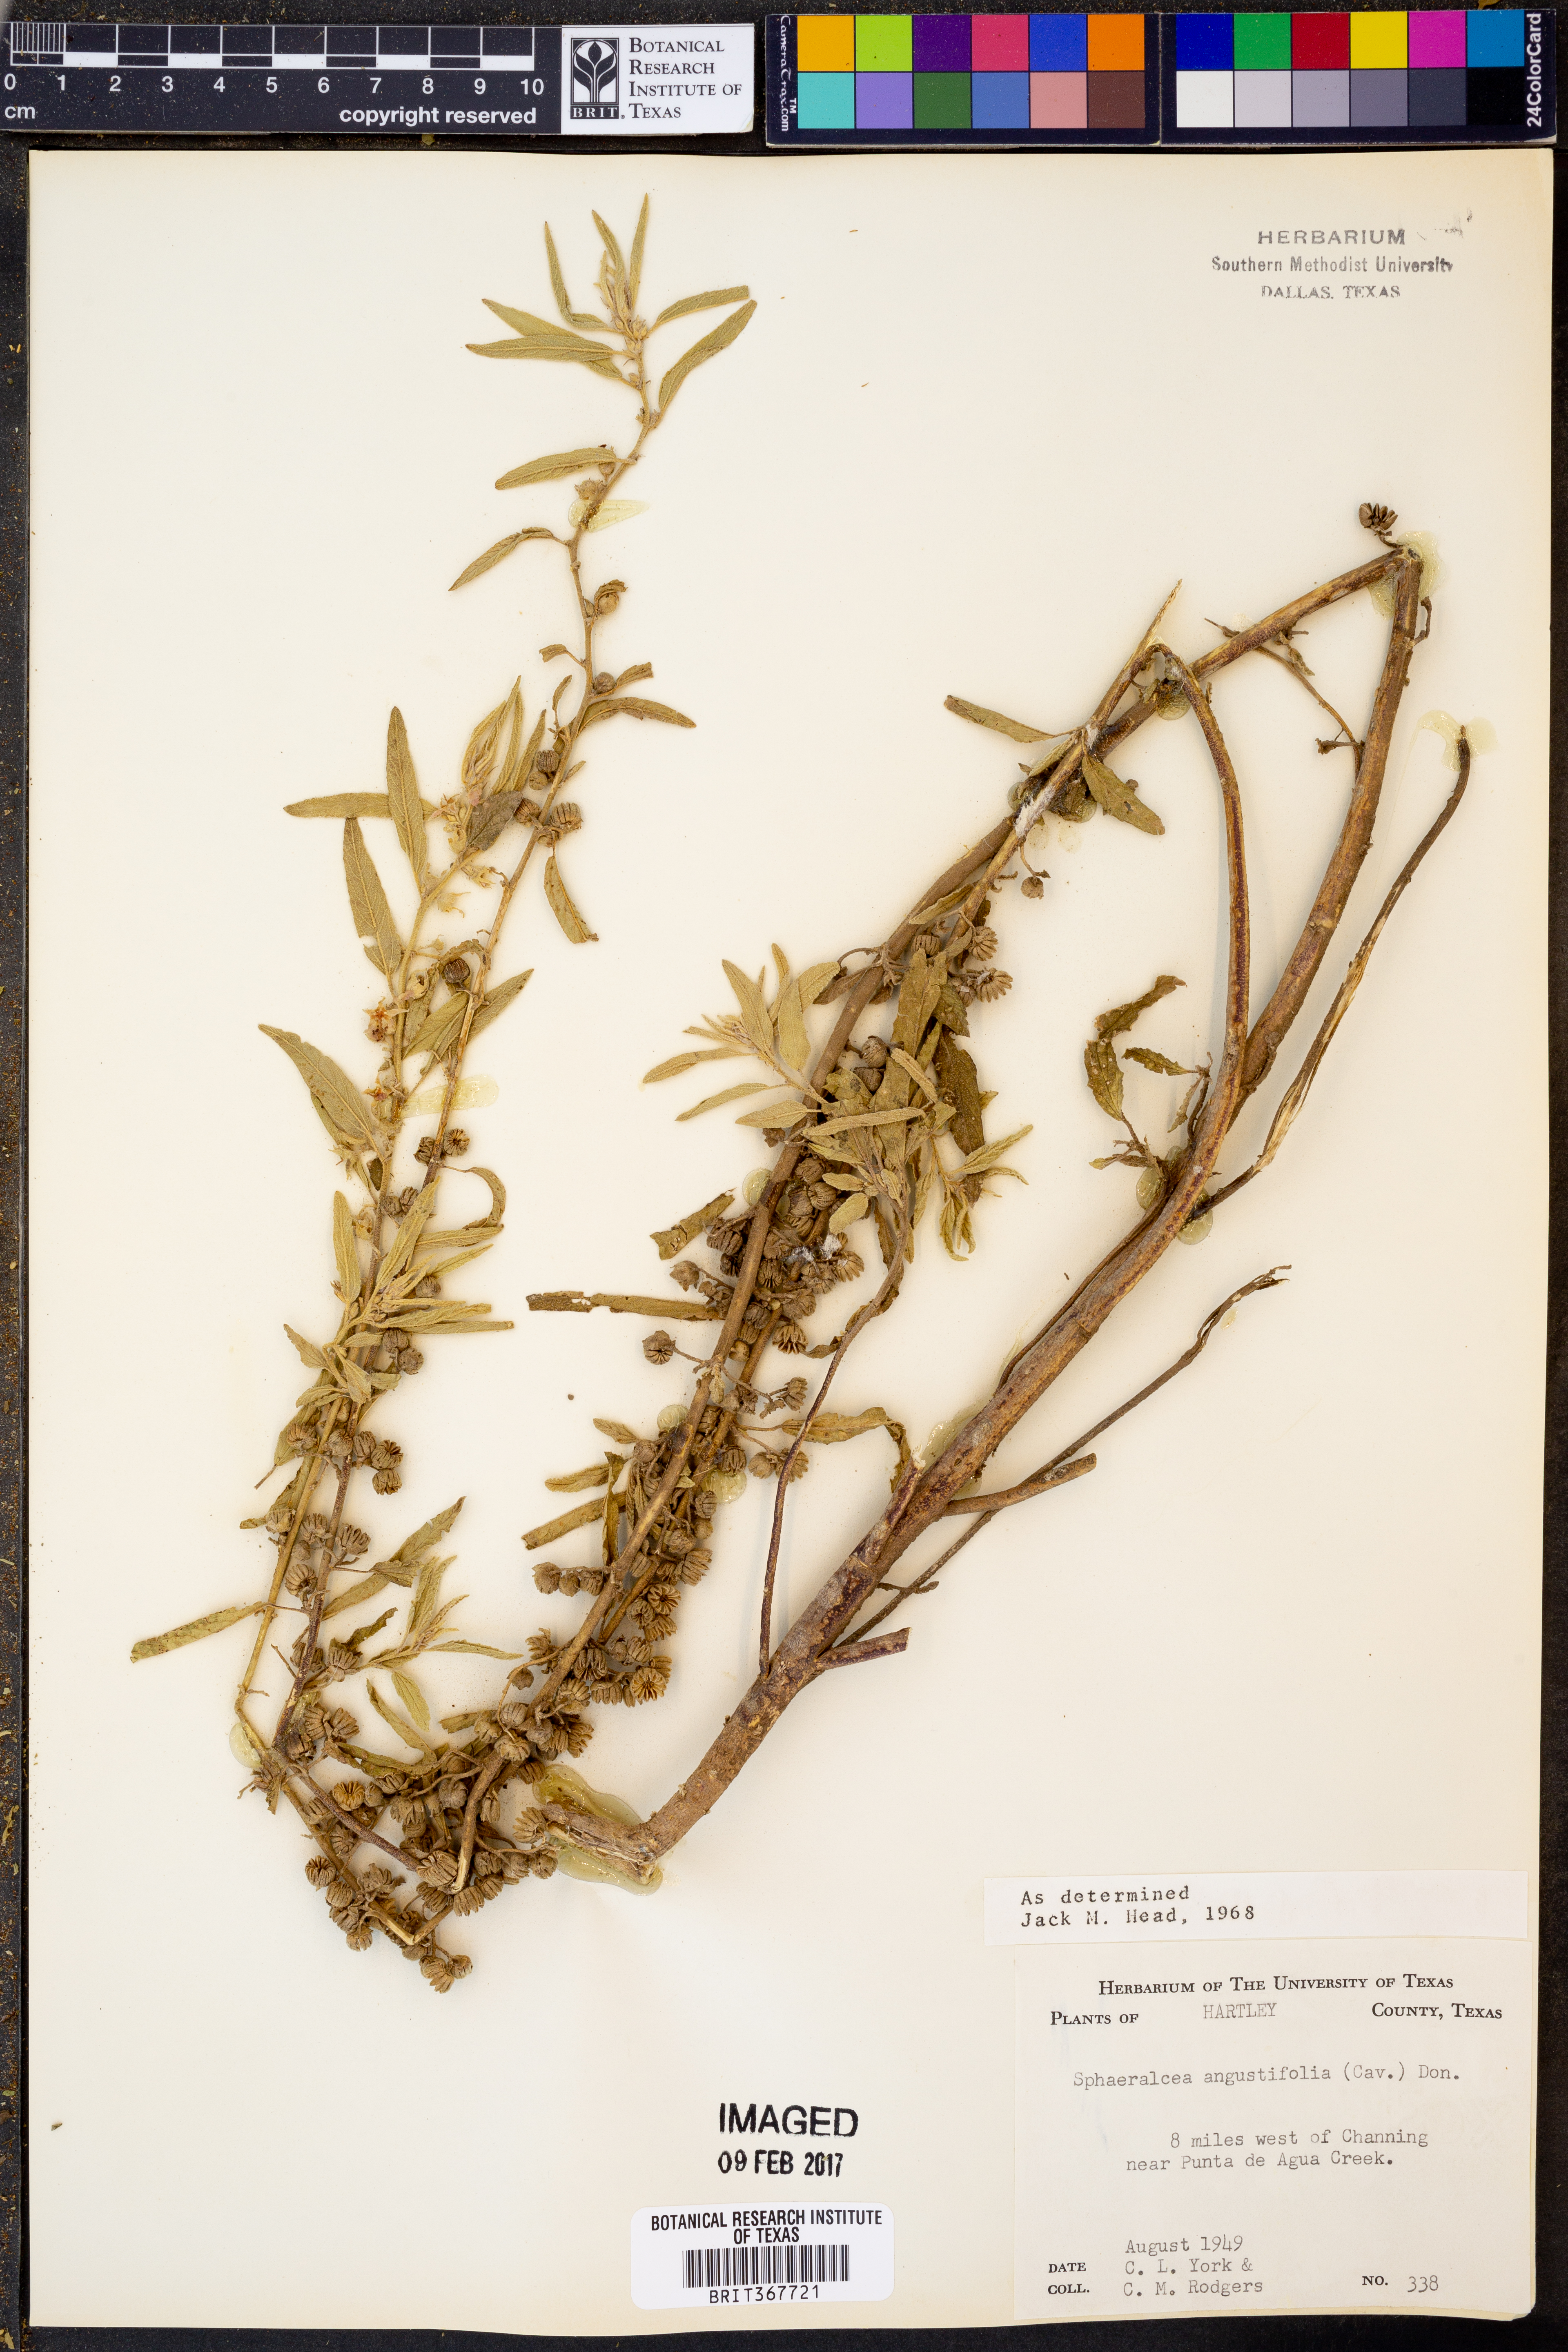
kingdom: Plantae
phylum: Tracheophyta
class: Magnoliopsida
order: Malvales
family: Malvaceae
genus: Sphaeralcea
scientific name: Sphaeralcea angustifolia
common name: Copper globe-mallow
